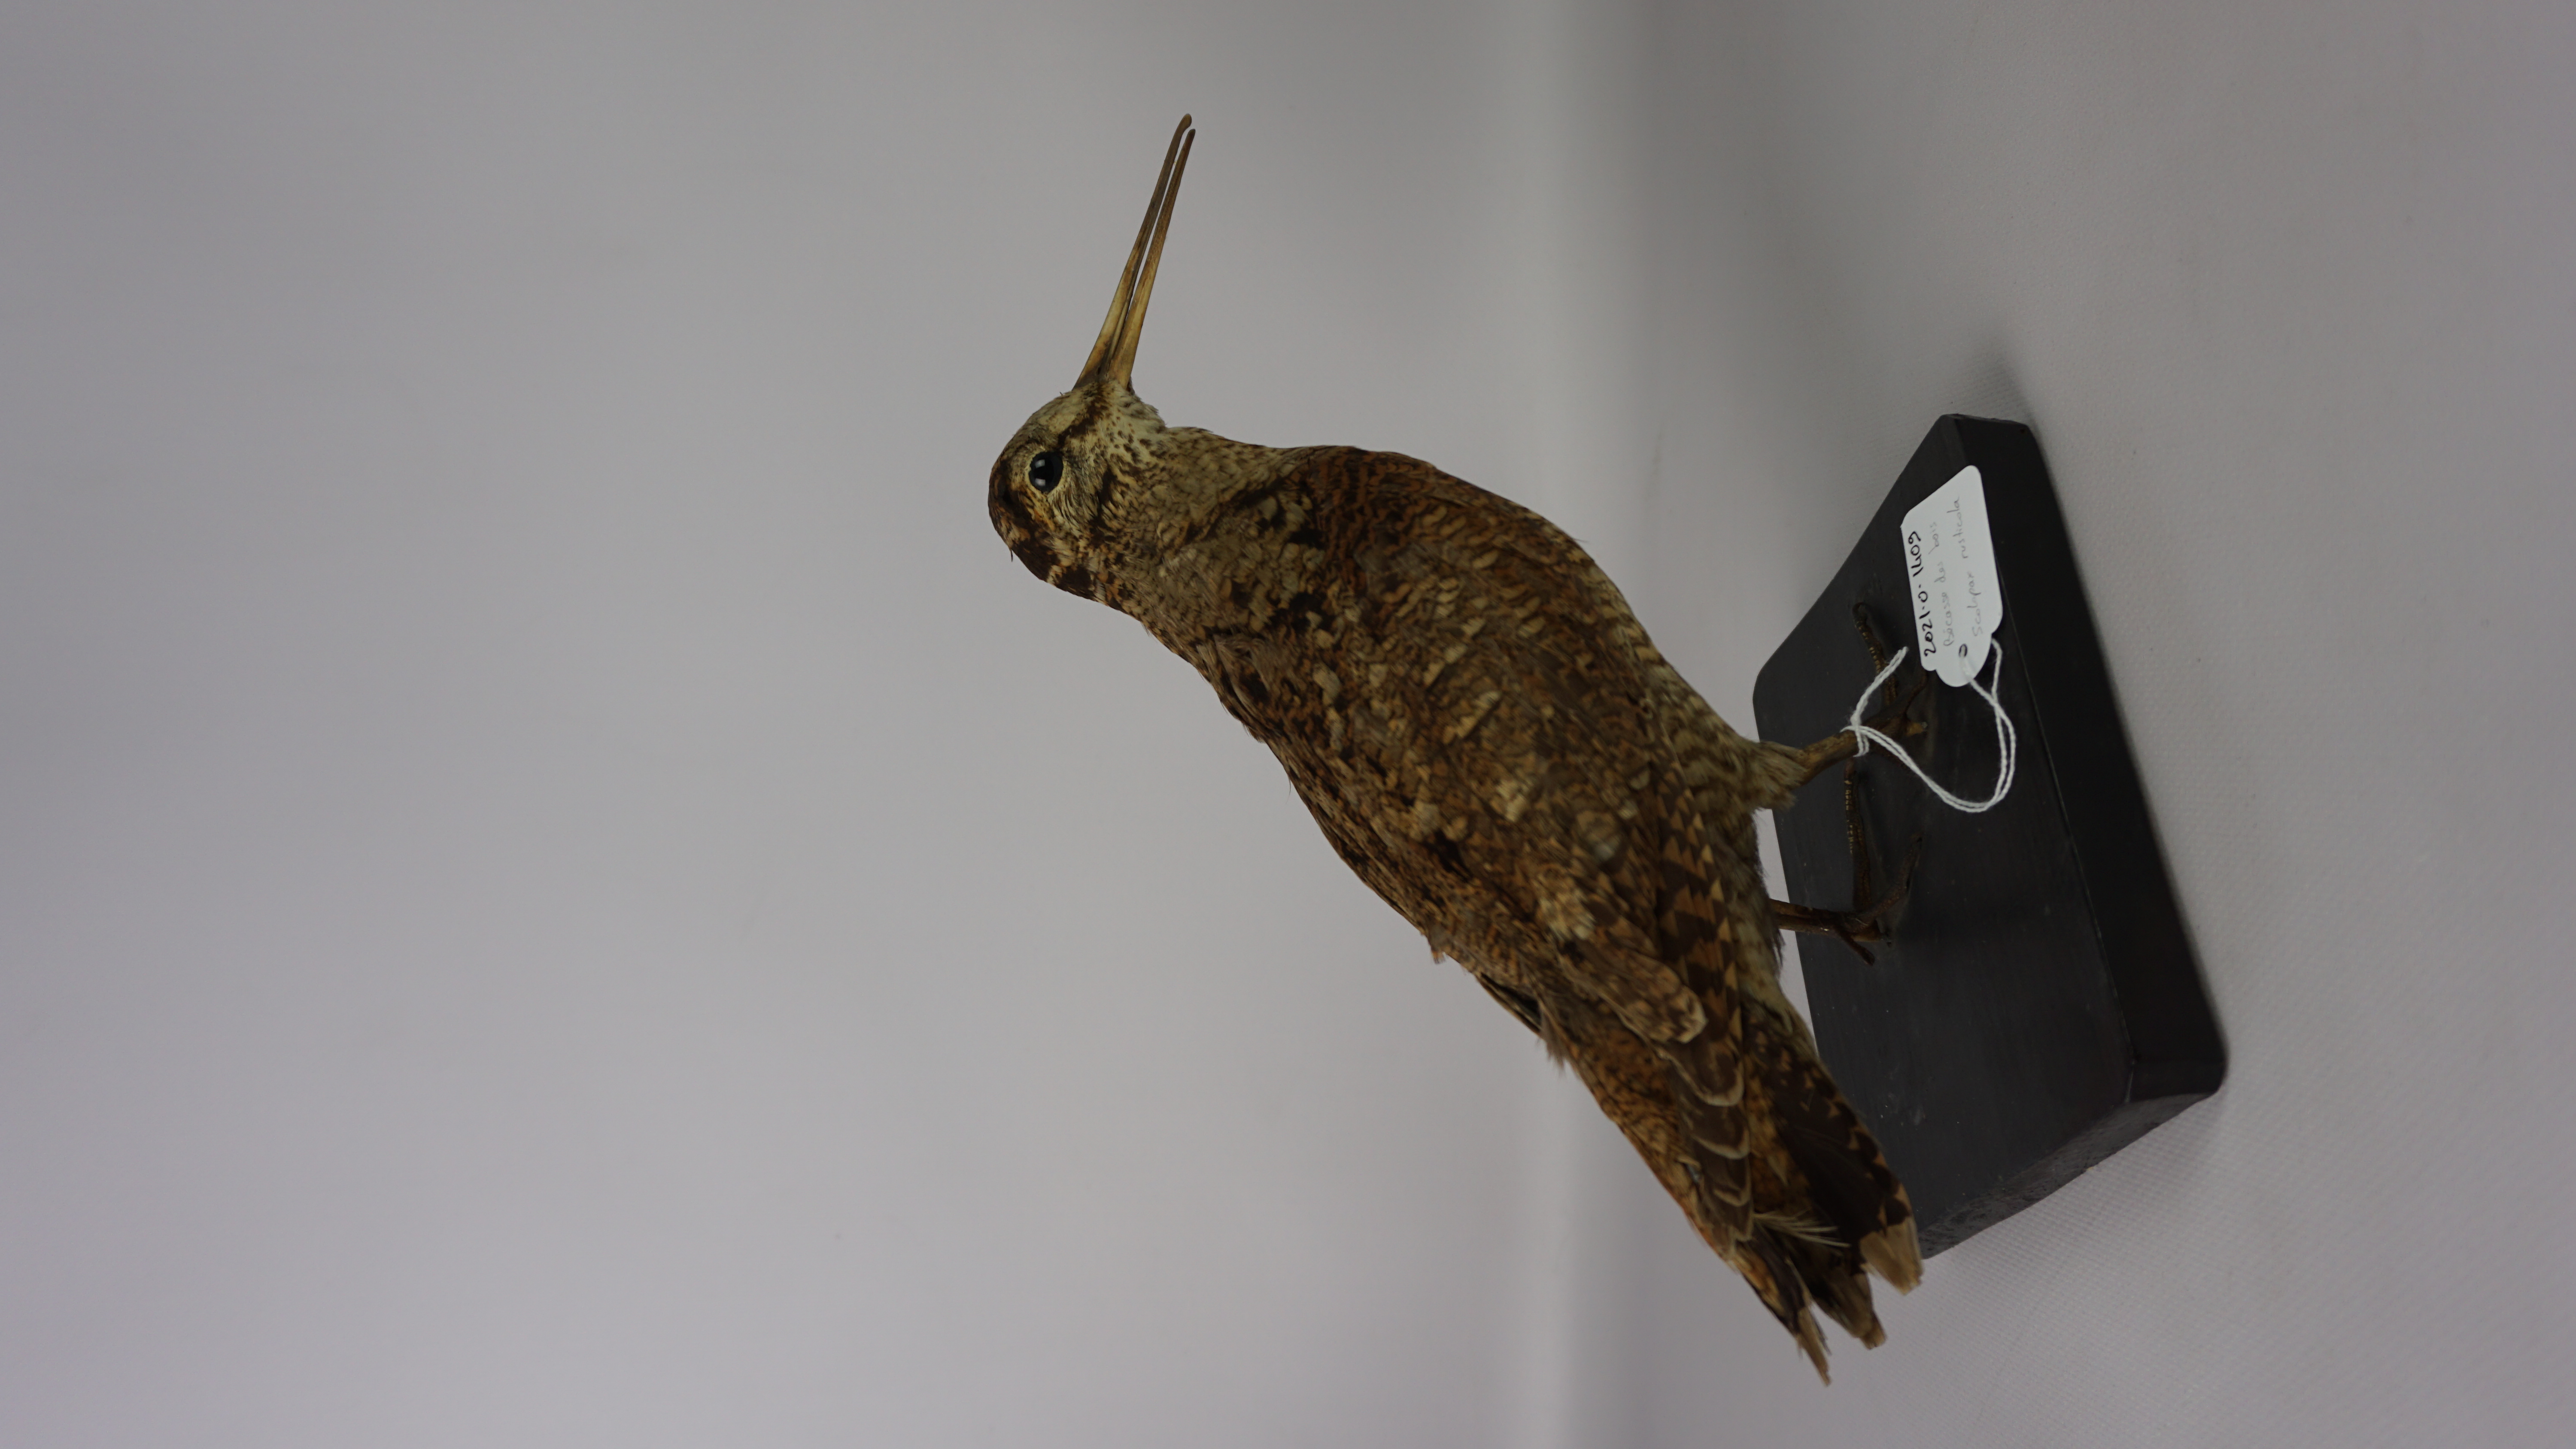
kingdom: Animalia
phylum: Chordata
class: Aves
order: Charadriiformes
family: Scolopacidae
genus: Scolopax
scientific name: Scolopax rusticola
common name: Eurasian woodcock
